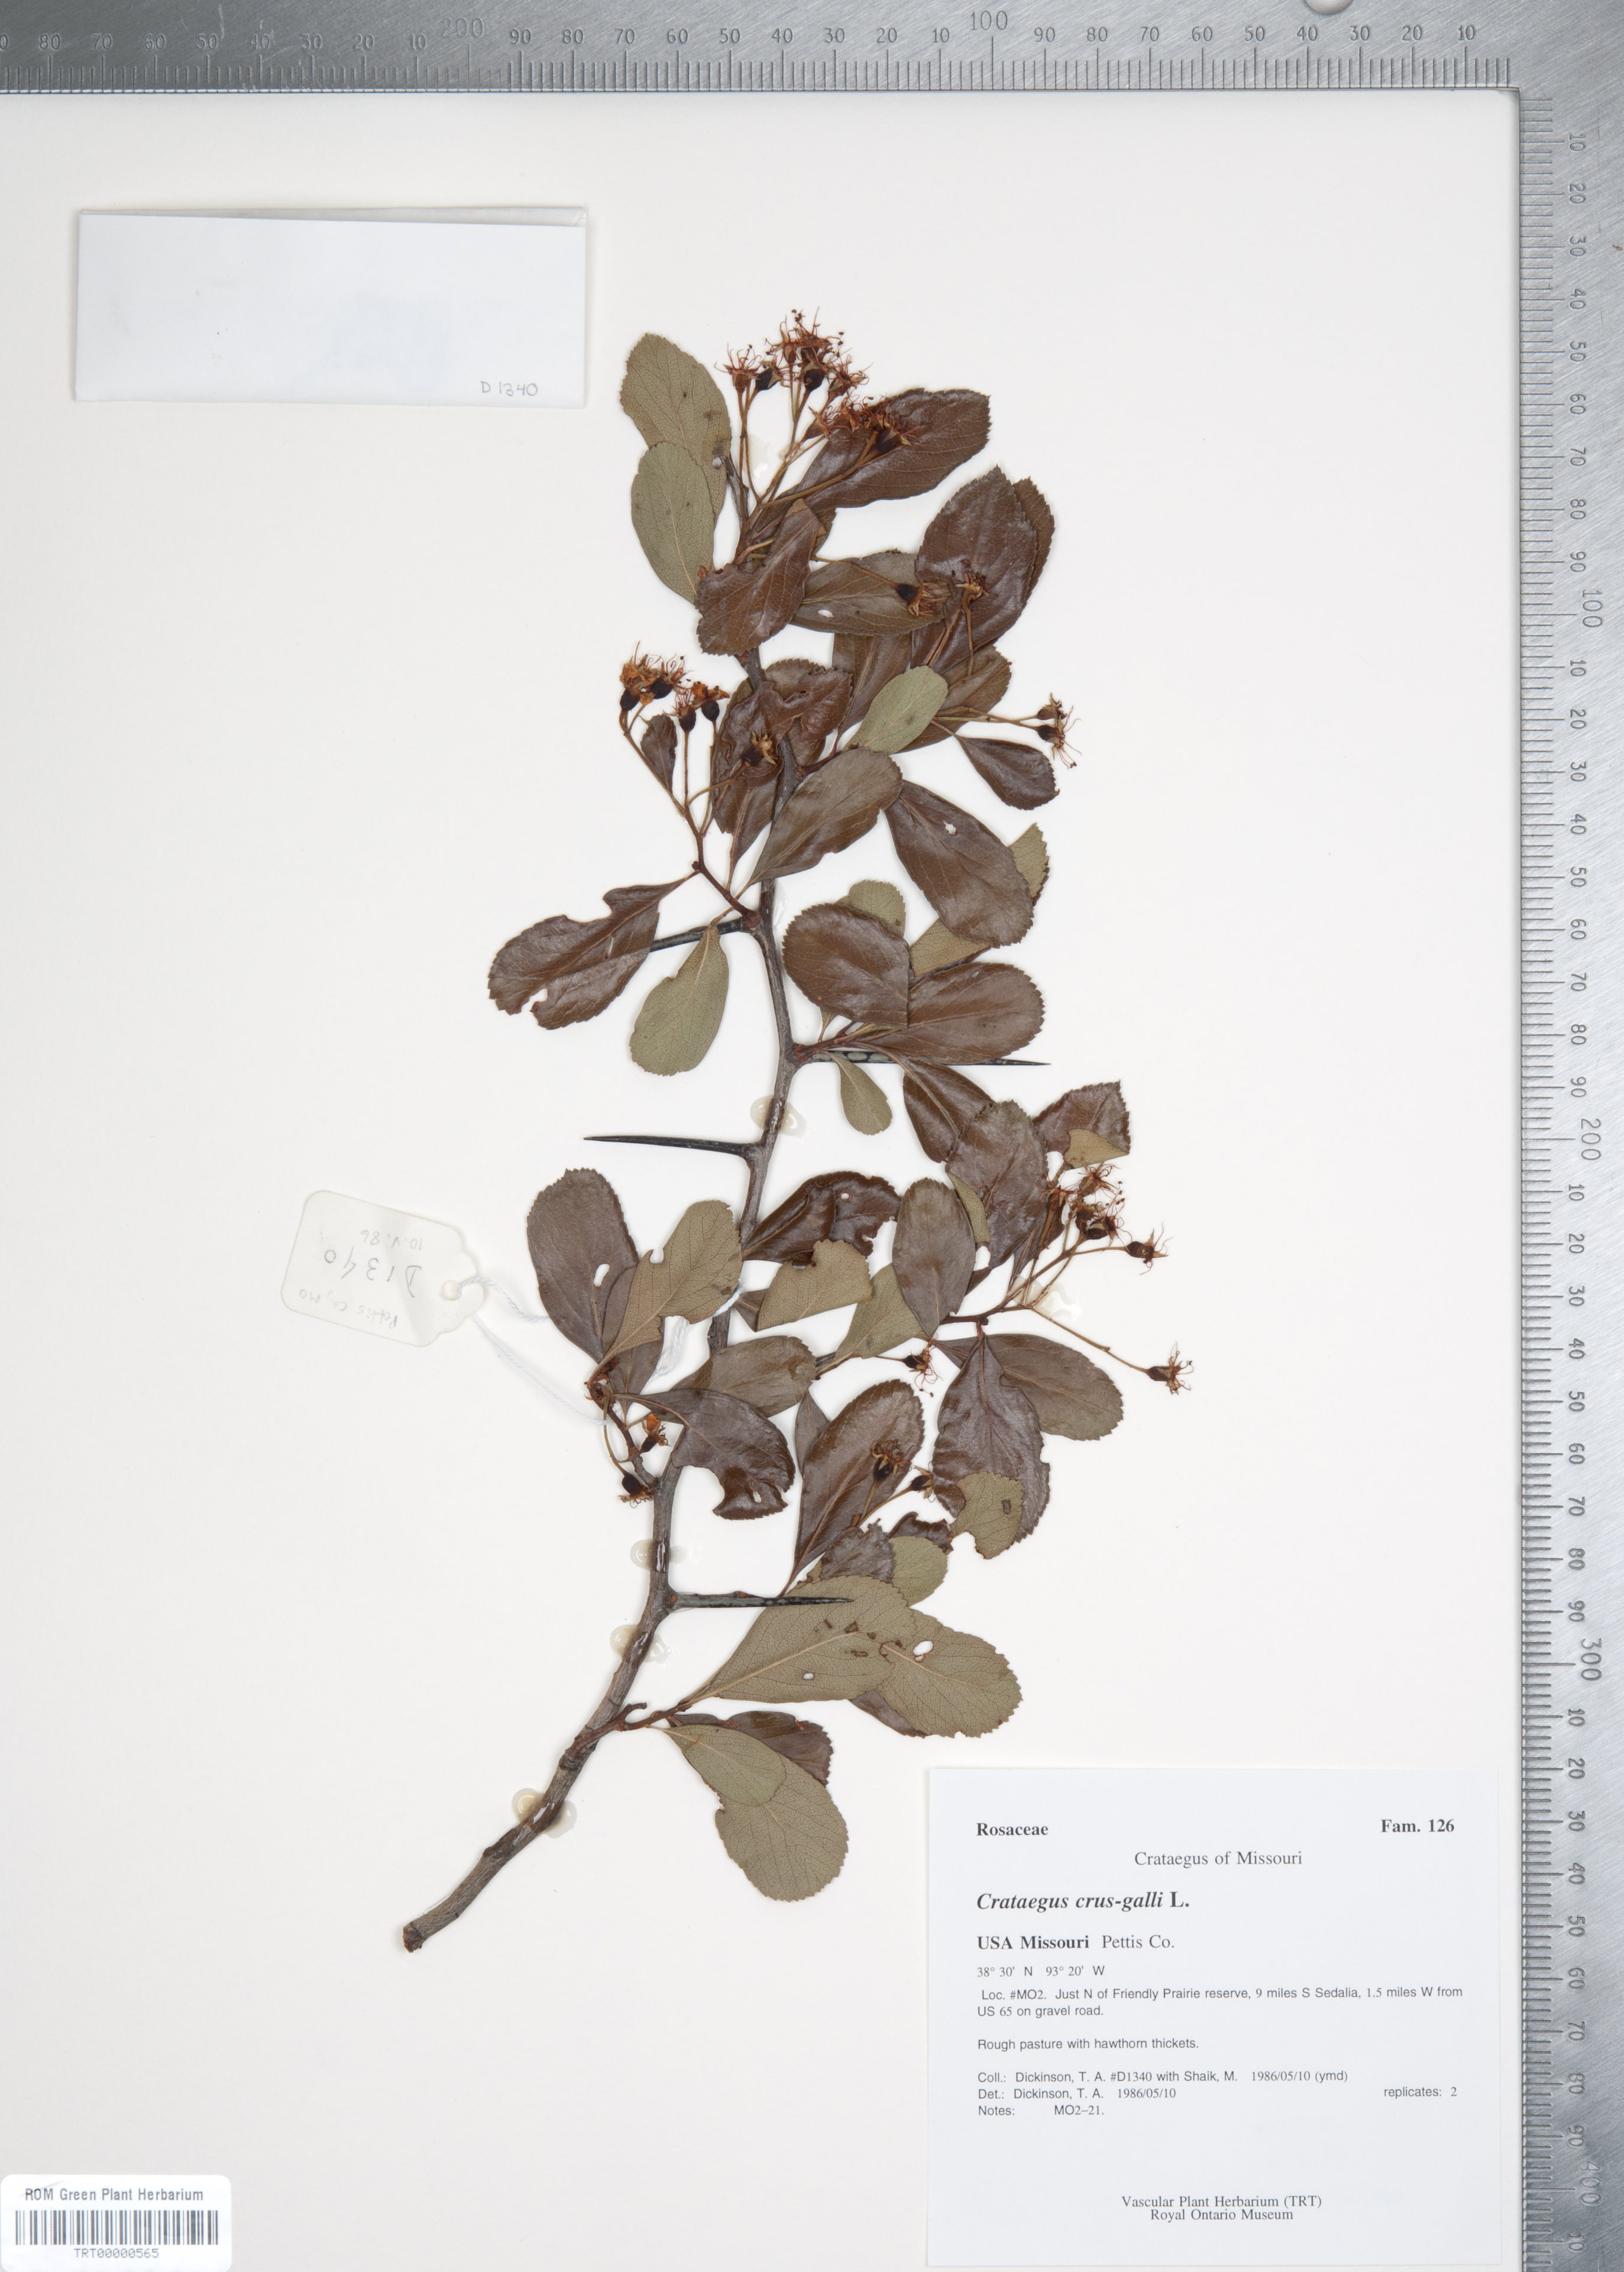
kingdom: Plantae
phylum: Tracheophyta
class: Magnoliopsida
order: Rosales
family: Rosaceae
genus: Crataegus
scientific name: Crataegus crus-galli
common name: Cockspurthorn
